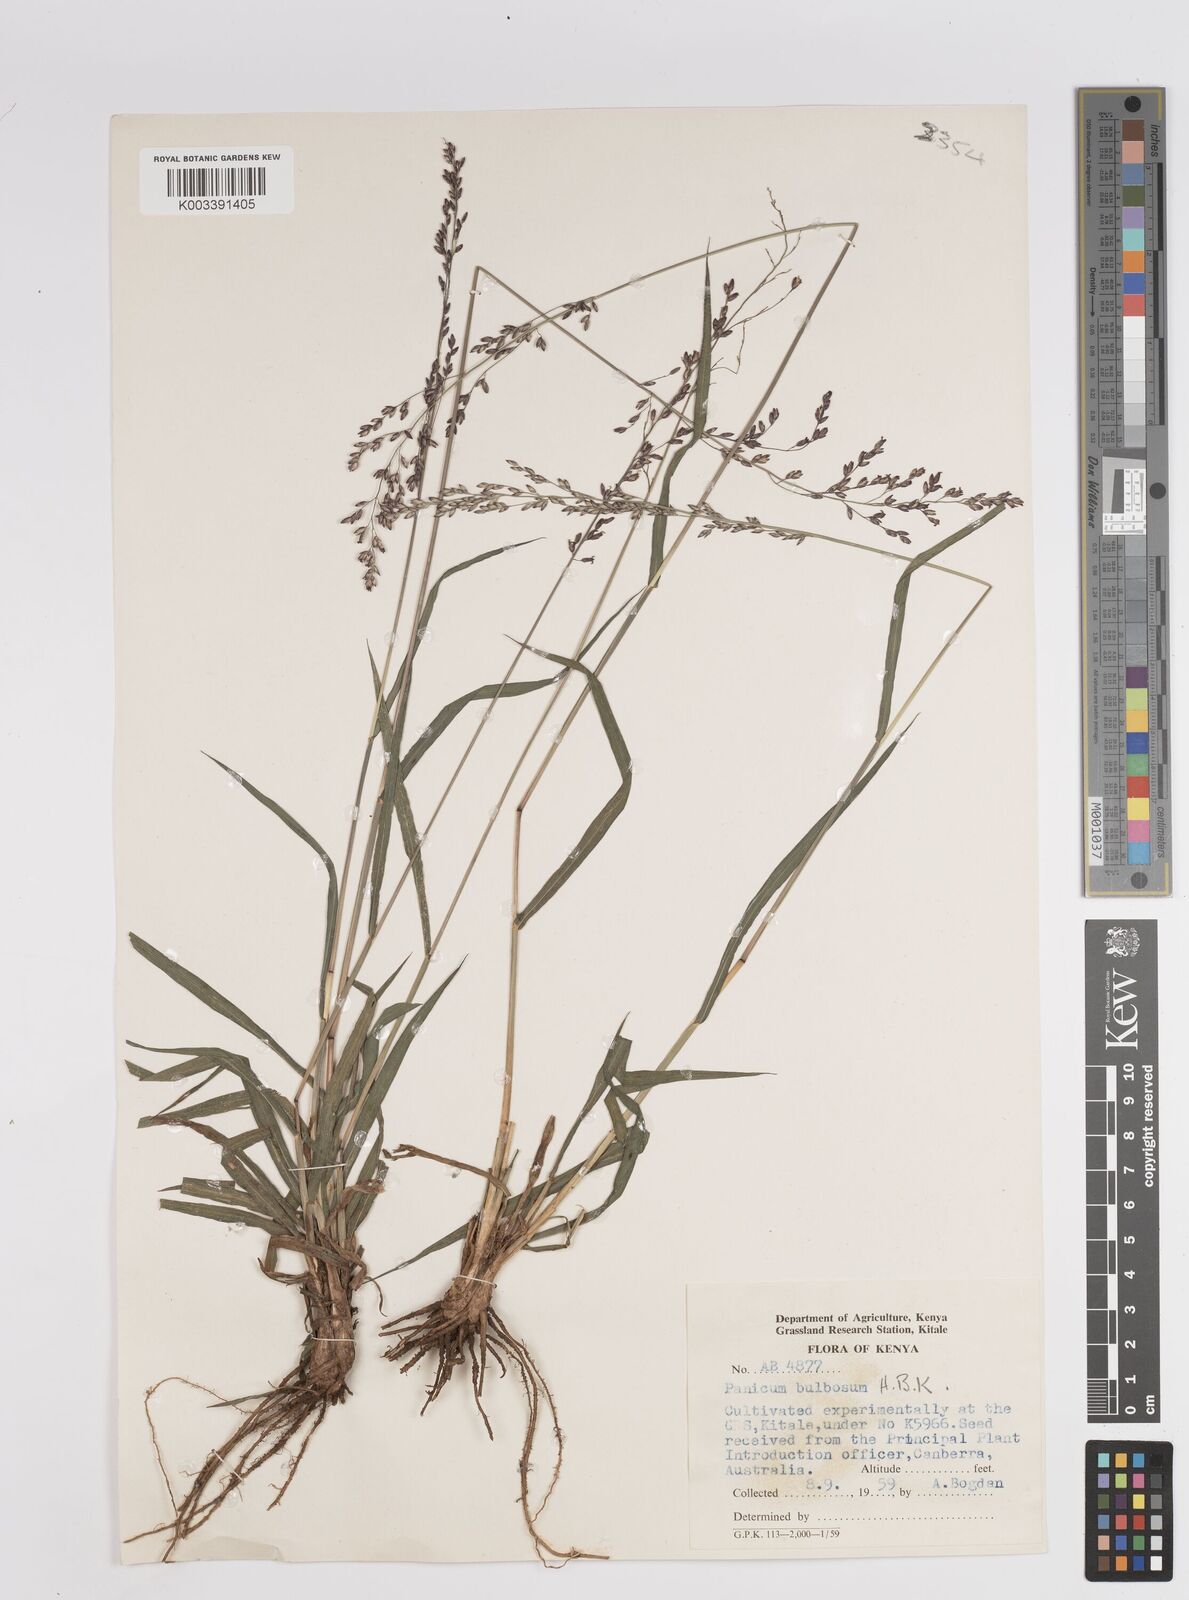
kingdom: Plantae
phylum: Tracheophyta
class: Liliopsida
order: Poales
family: Poaceae
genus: Zuloagaea
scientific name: Zuloagaea bulbosa
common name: Canyon panic grass
